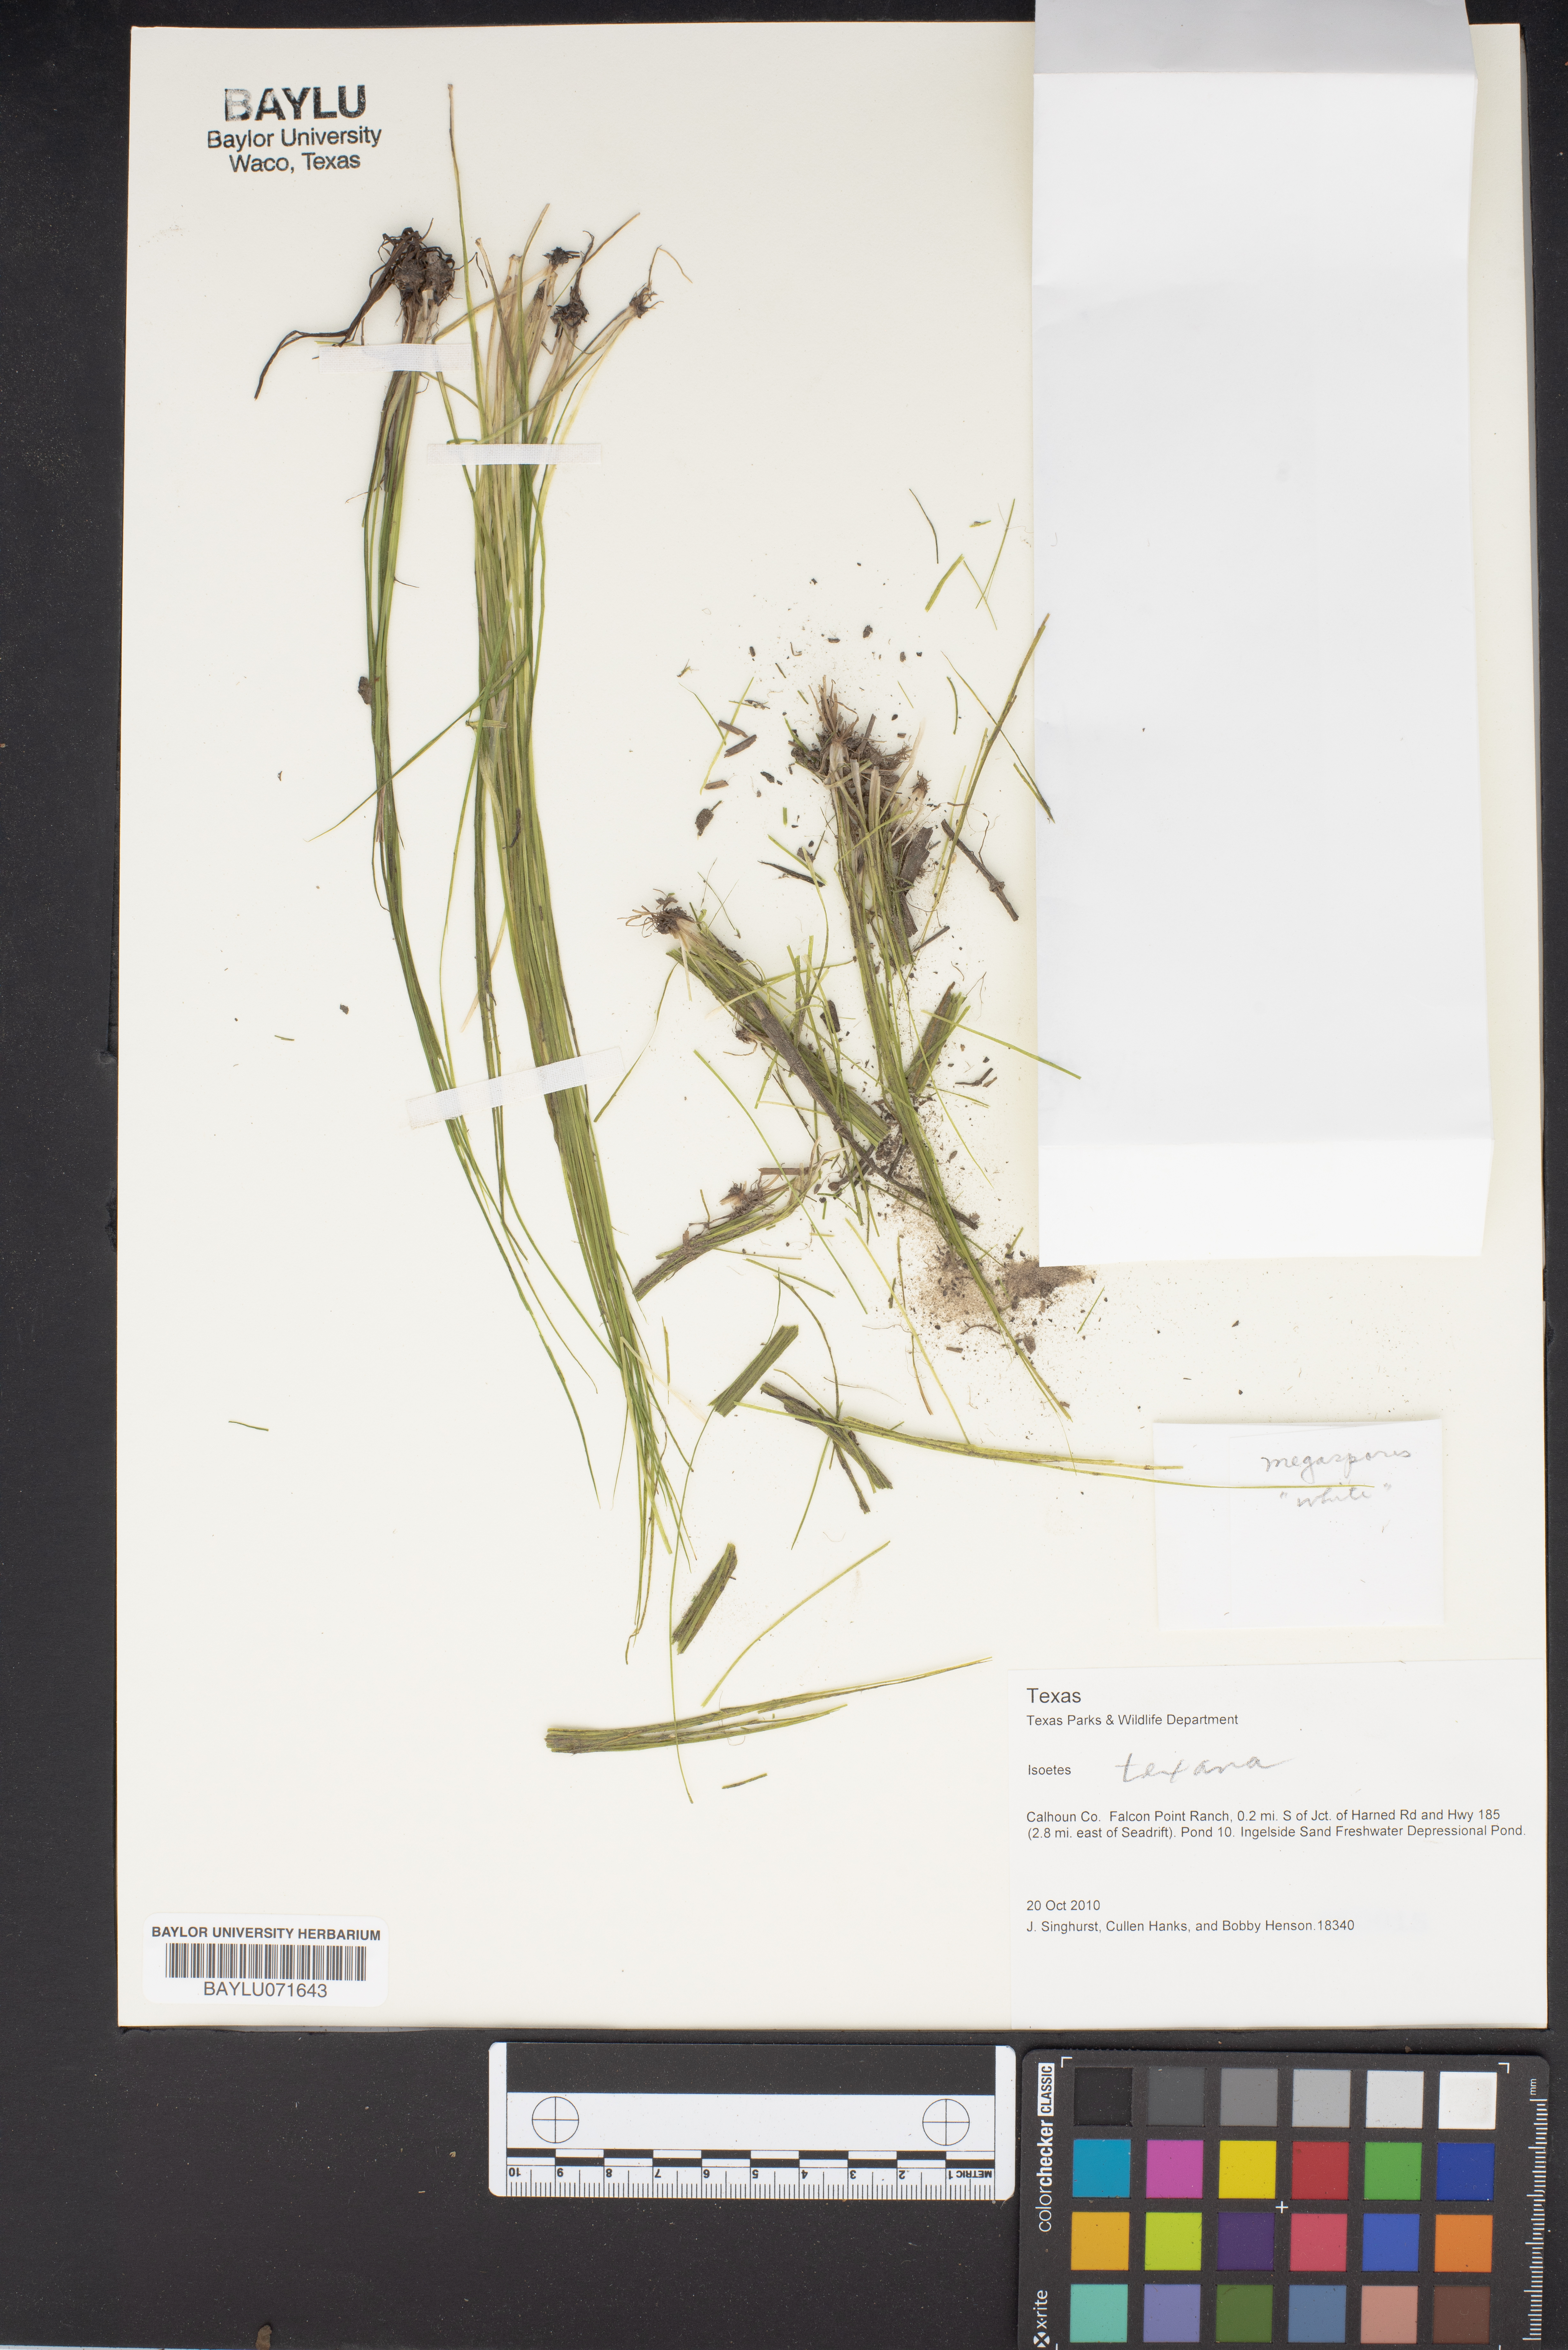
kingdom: Plantae
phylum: Tracheophyta
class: Lycopodiopsida
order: Isoetales
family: Isoetaceae
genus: Isoetes
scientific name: Isoetes texana
